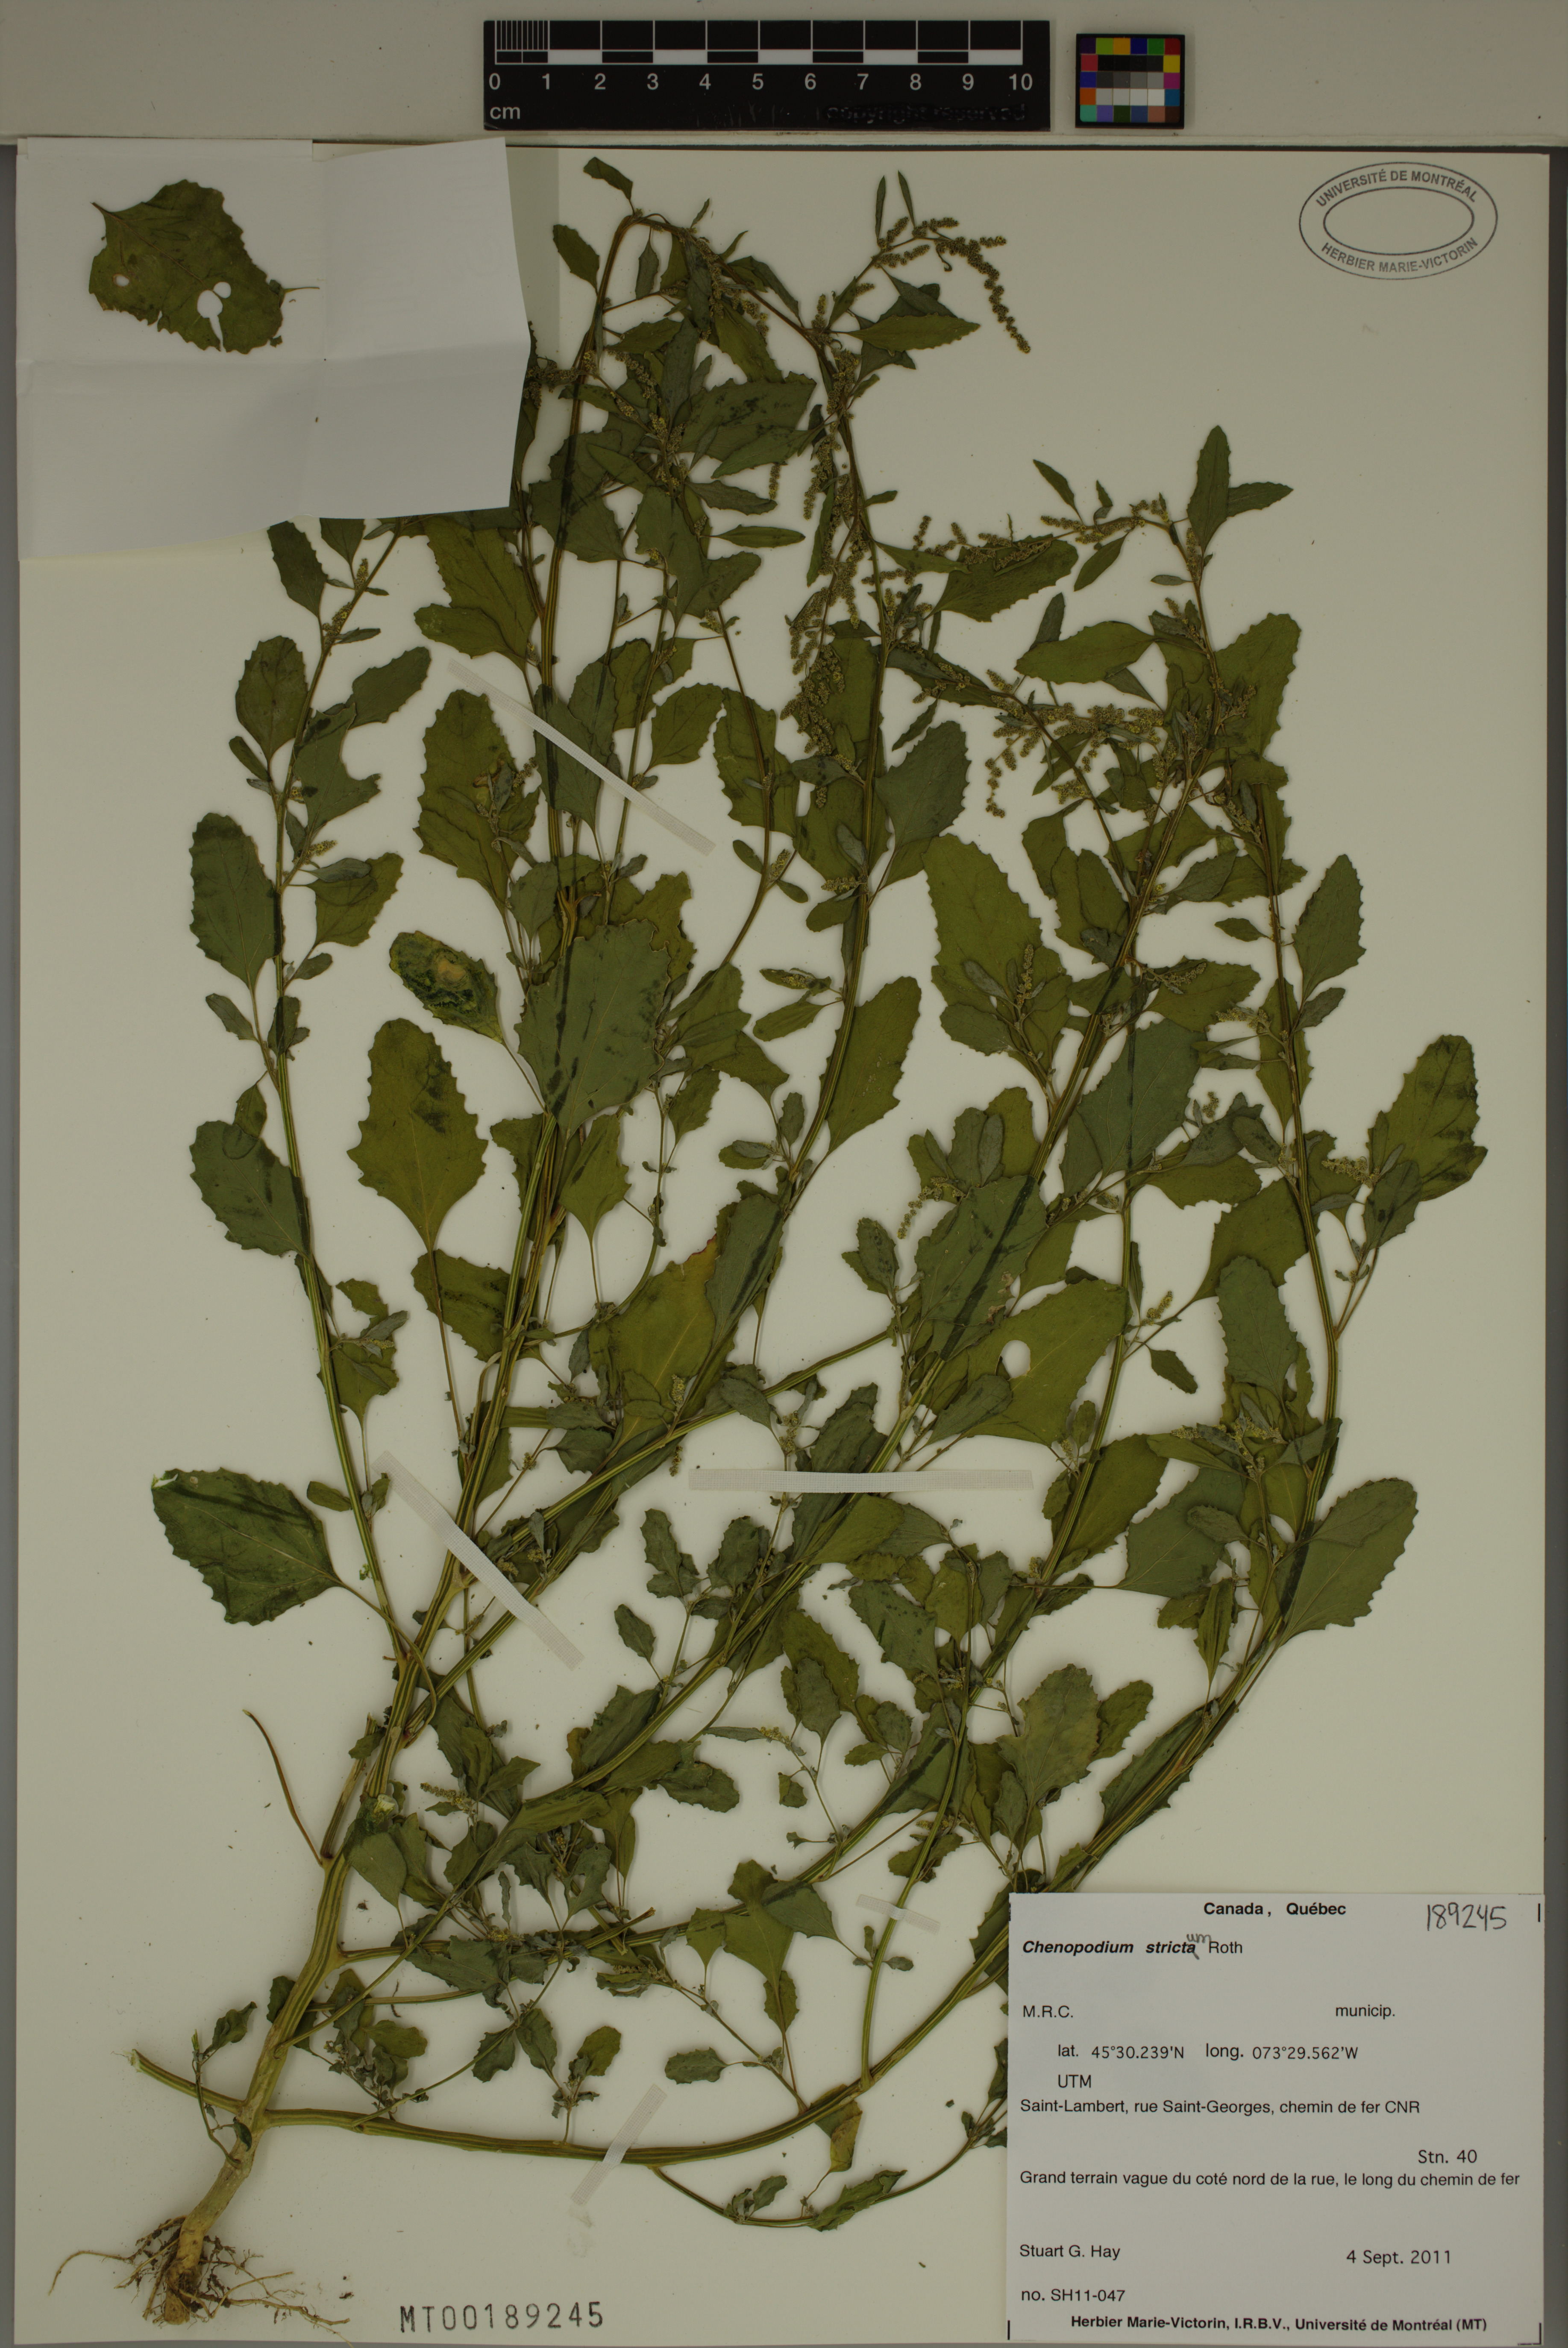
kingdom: Plantae
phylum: Tracheophyta
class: Magnoliopsida
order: Caryophyllales
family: Amaranthaceae
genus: Chenopodium
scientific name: Chenopodium album
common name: Fat-hen
